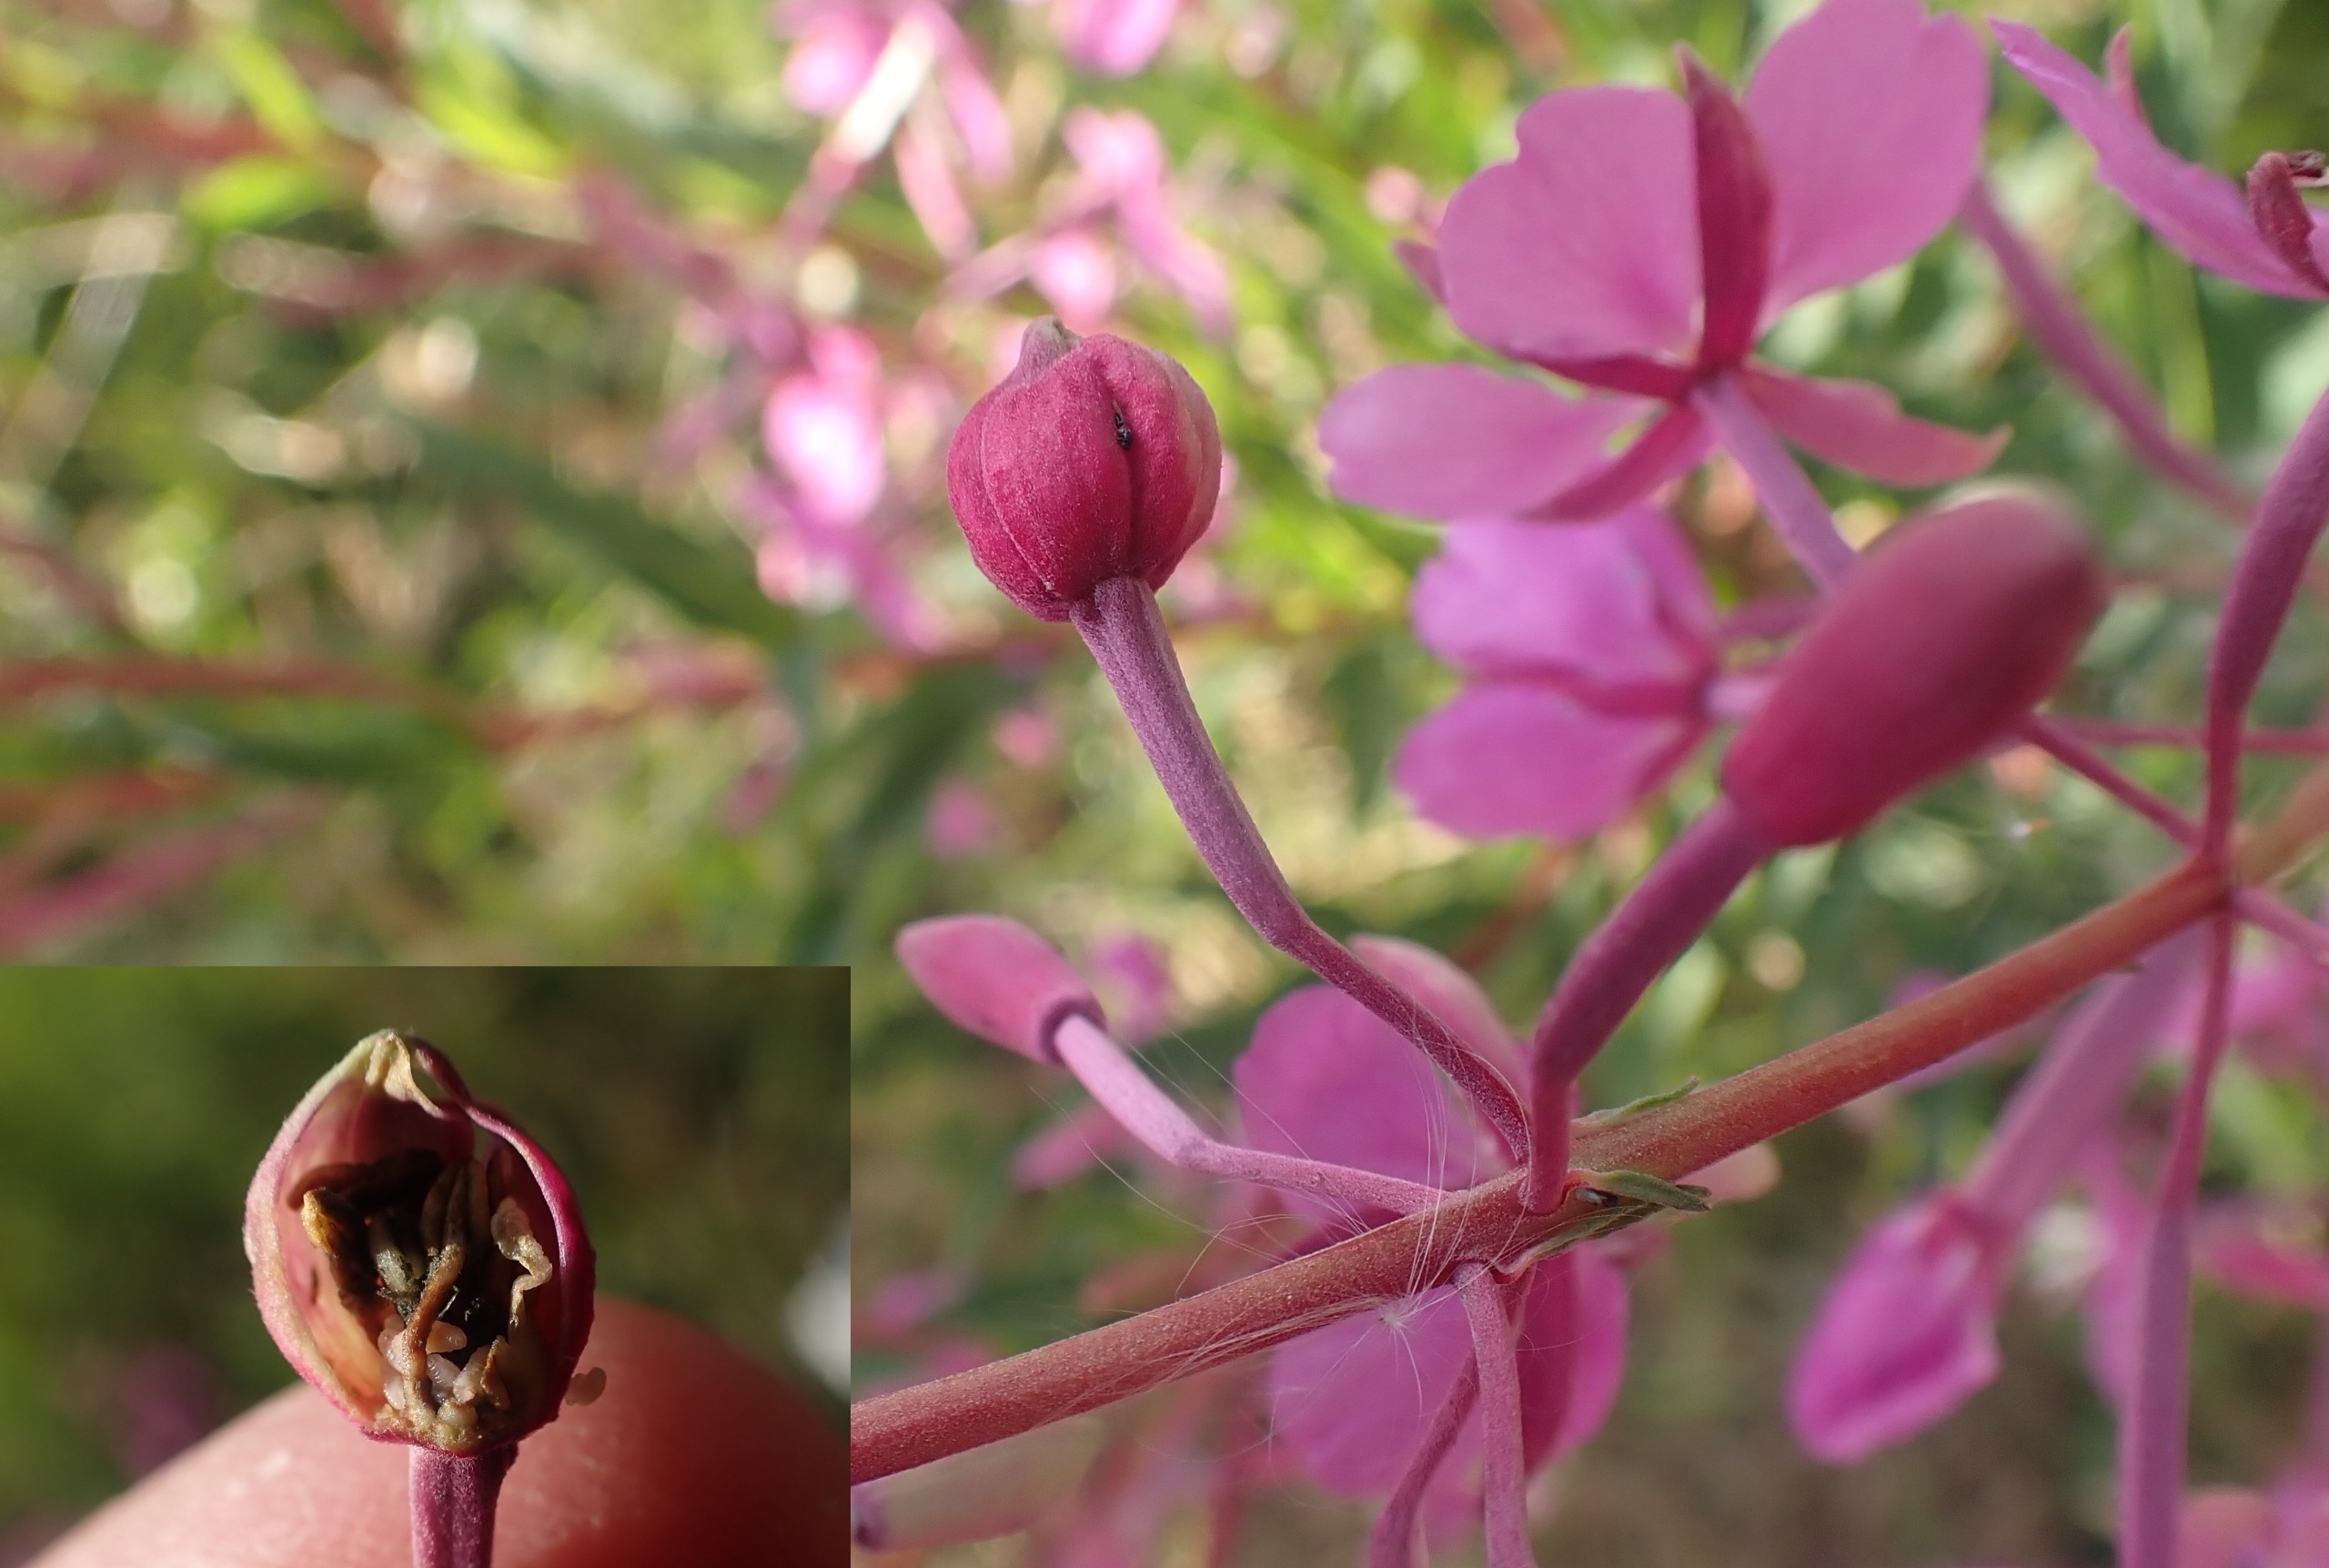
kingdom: Animalia
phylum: Arthropoda
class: Insecta
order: Diptera
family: Cecidomyiidae
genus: Dasineura
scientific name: Dasineura epilobii
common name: Gederamsblomstgalmyg
